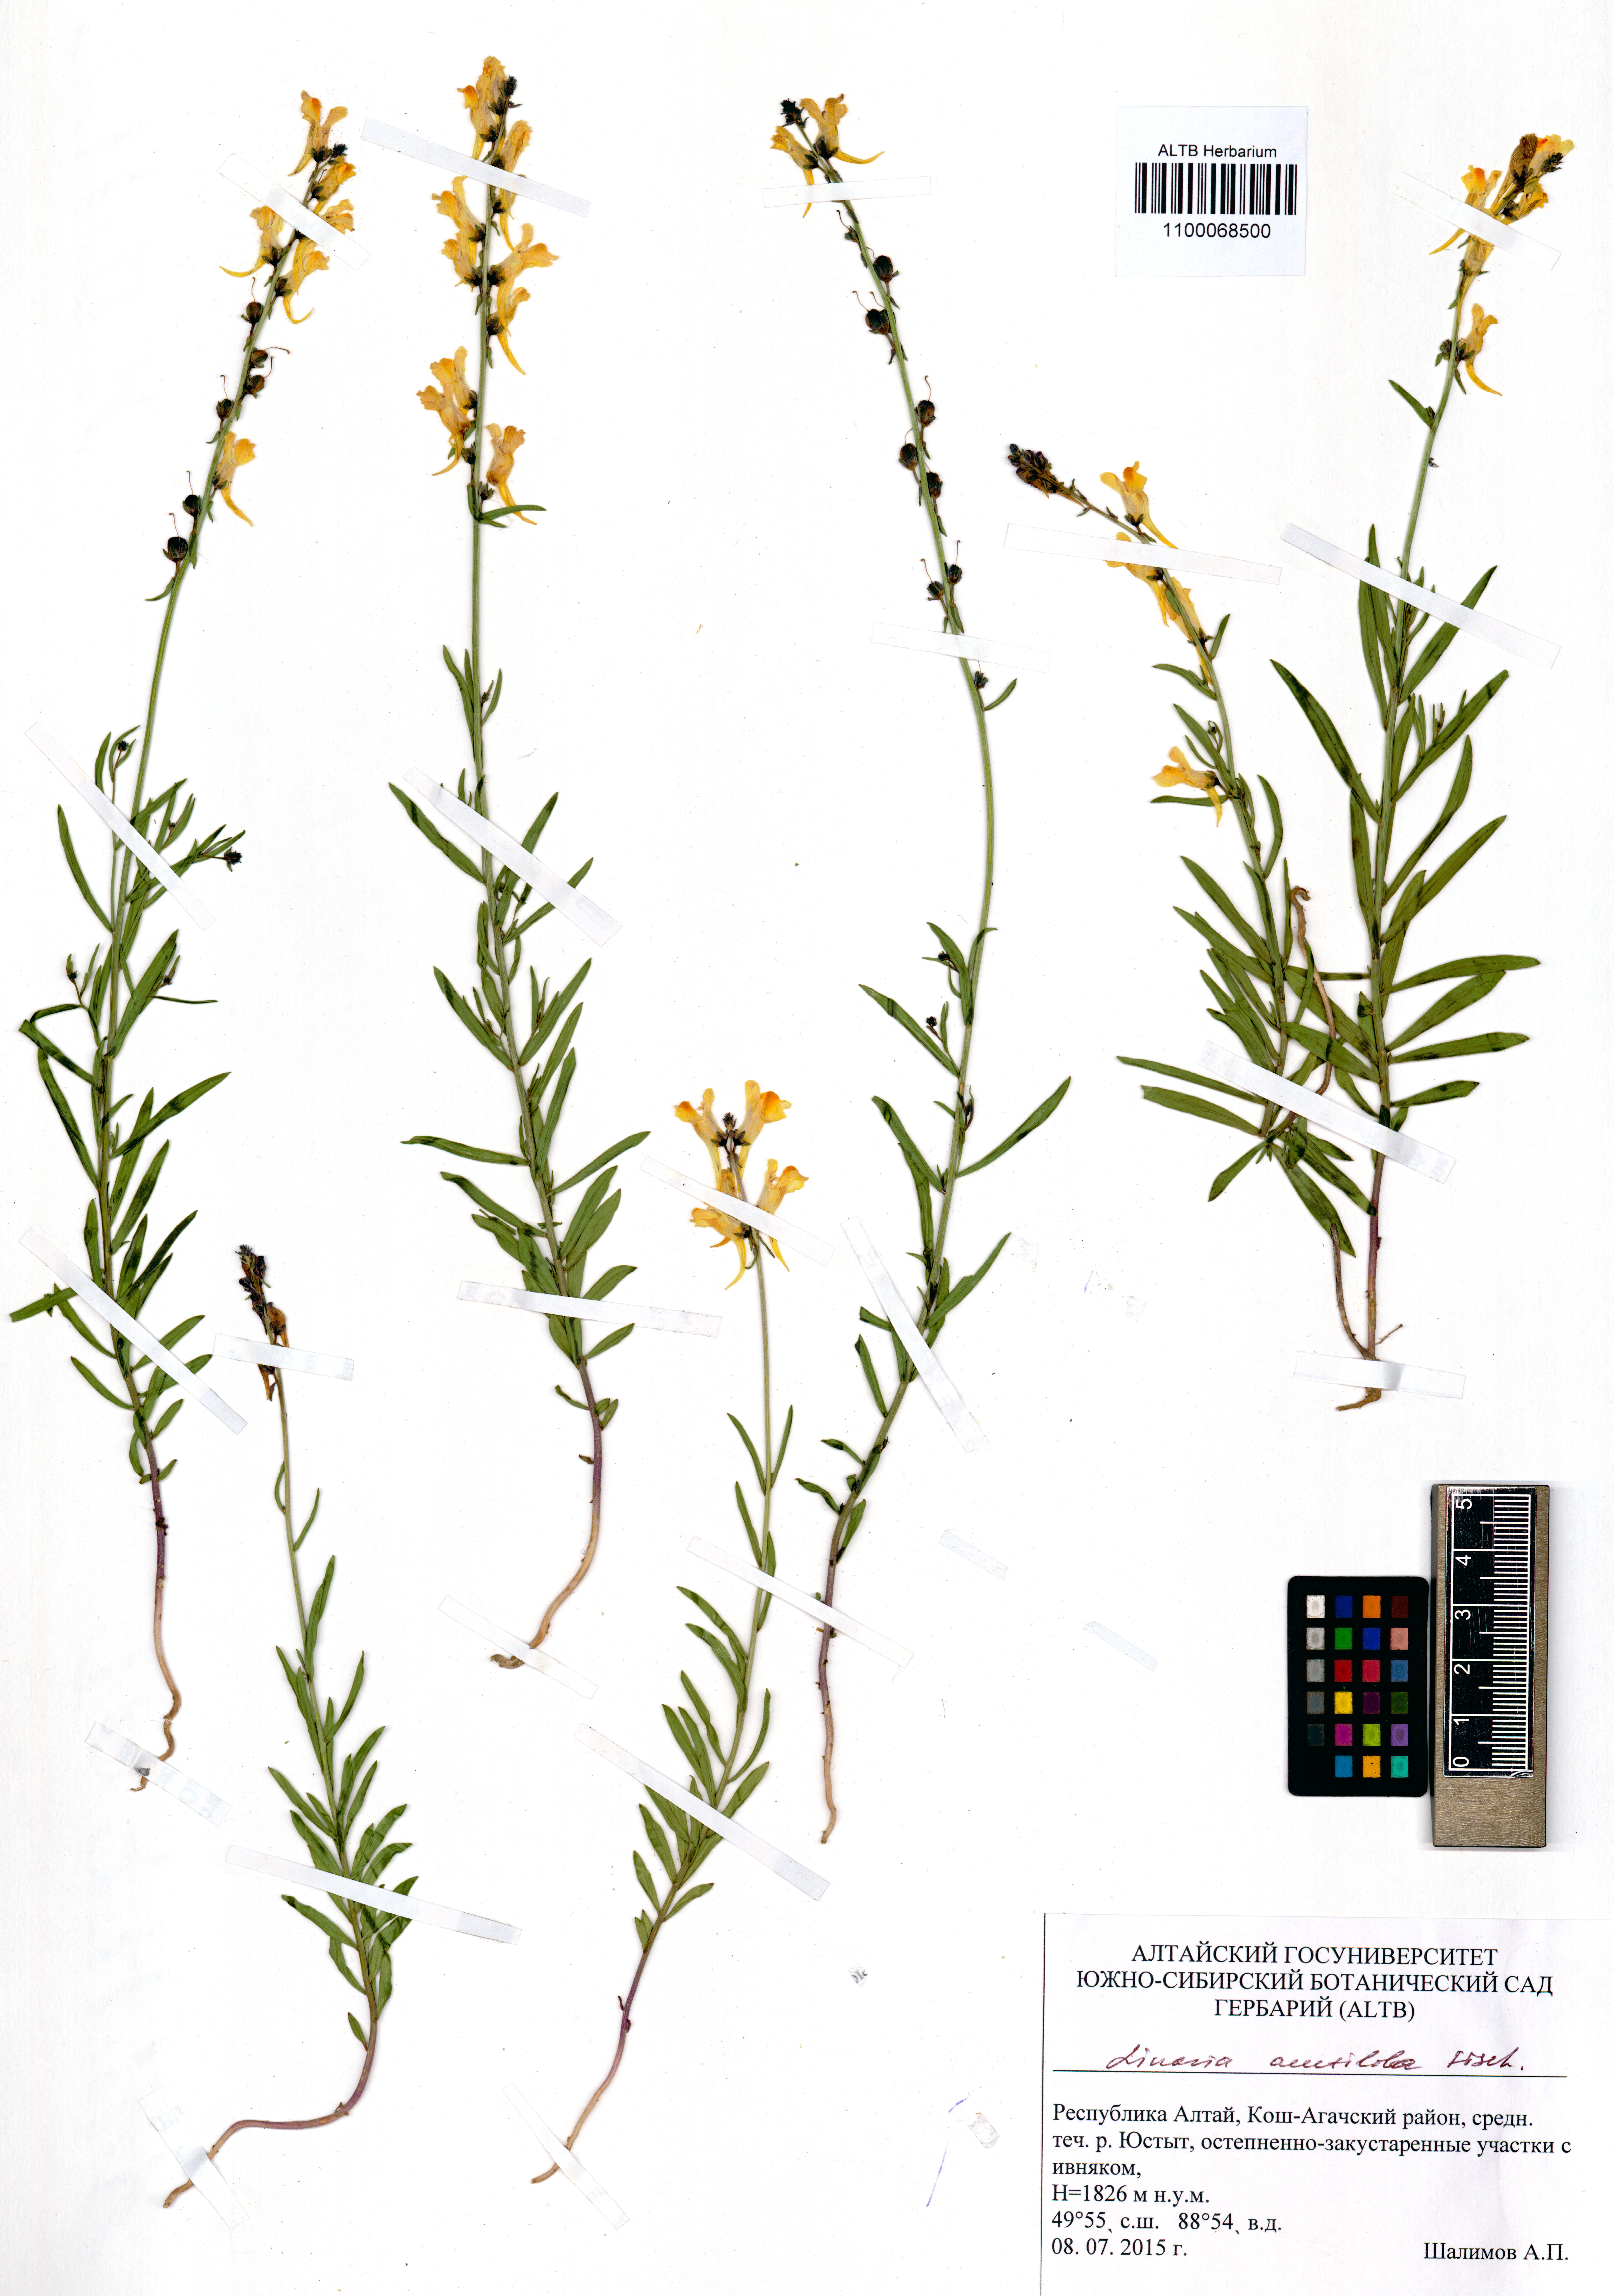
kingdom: Plantae
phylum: Tracheophyta
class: Magnoliopsida
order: Lamiales
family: Plantaginaceae
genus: Linaria
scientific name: Linaria acutiloba
